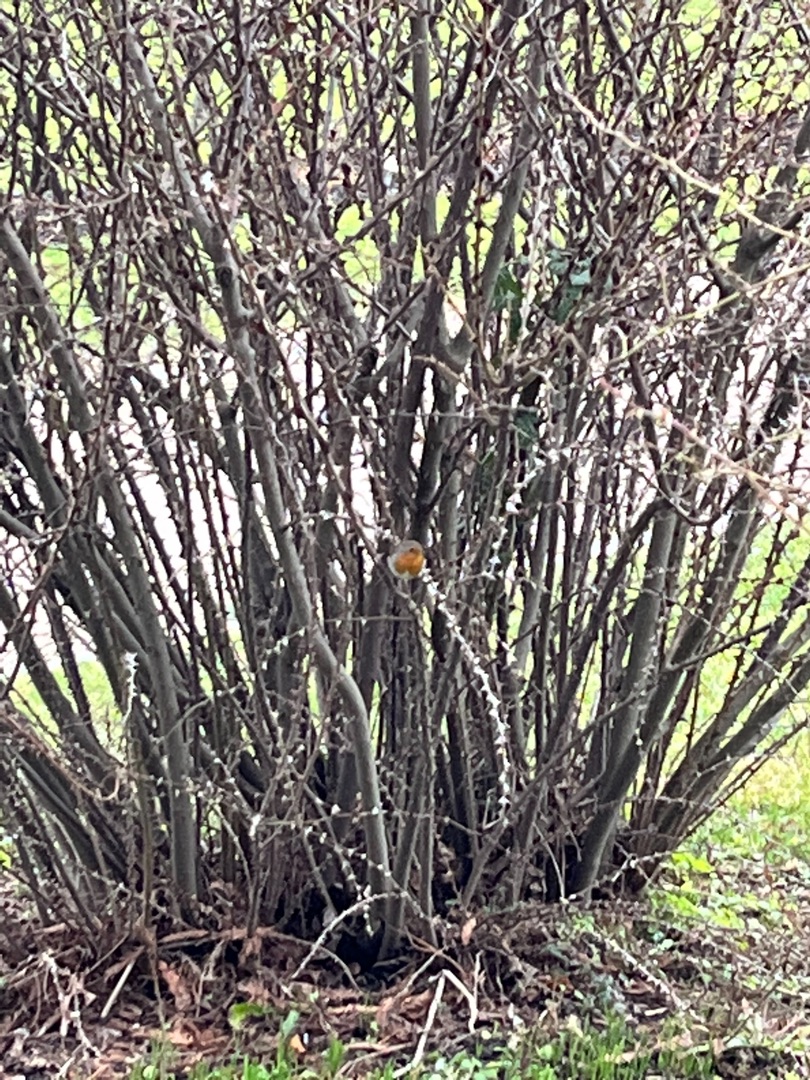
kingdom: Animalia
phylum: Chordata
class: Aves
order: Passeriformes
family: Muscicapidae
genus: Erithacus
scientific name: Erithacus rubecula
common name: Rødhals/rødkælk
